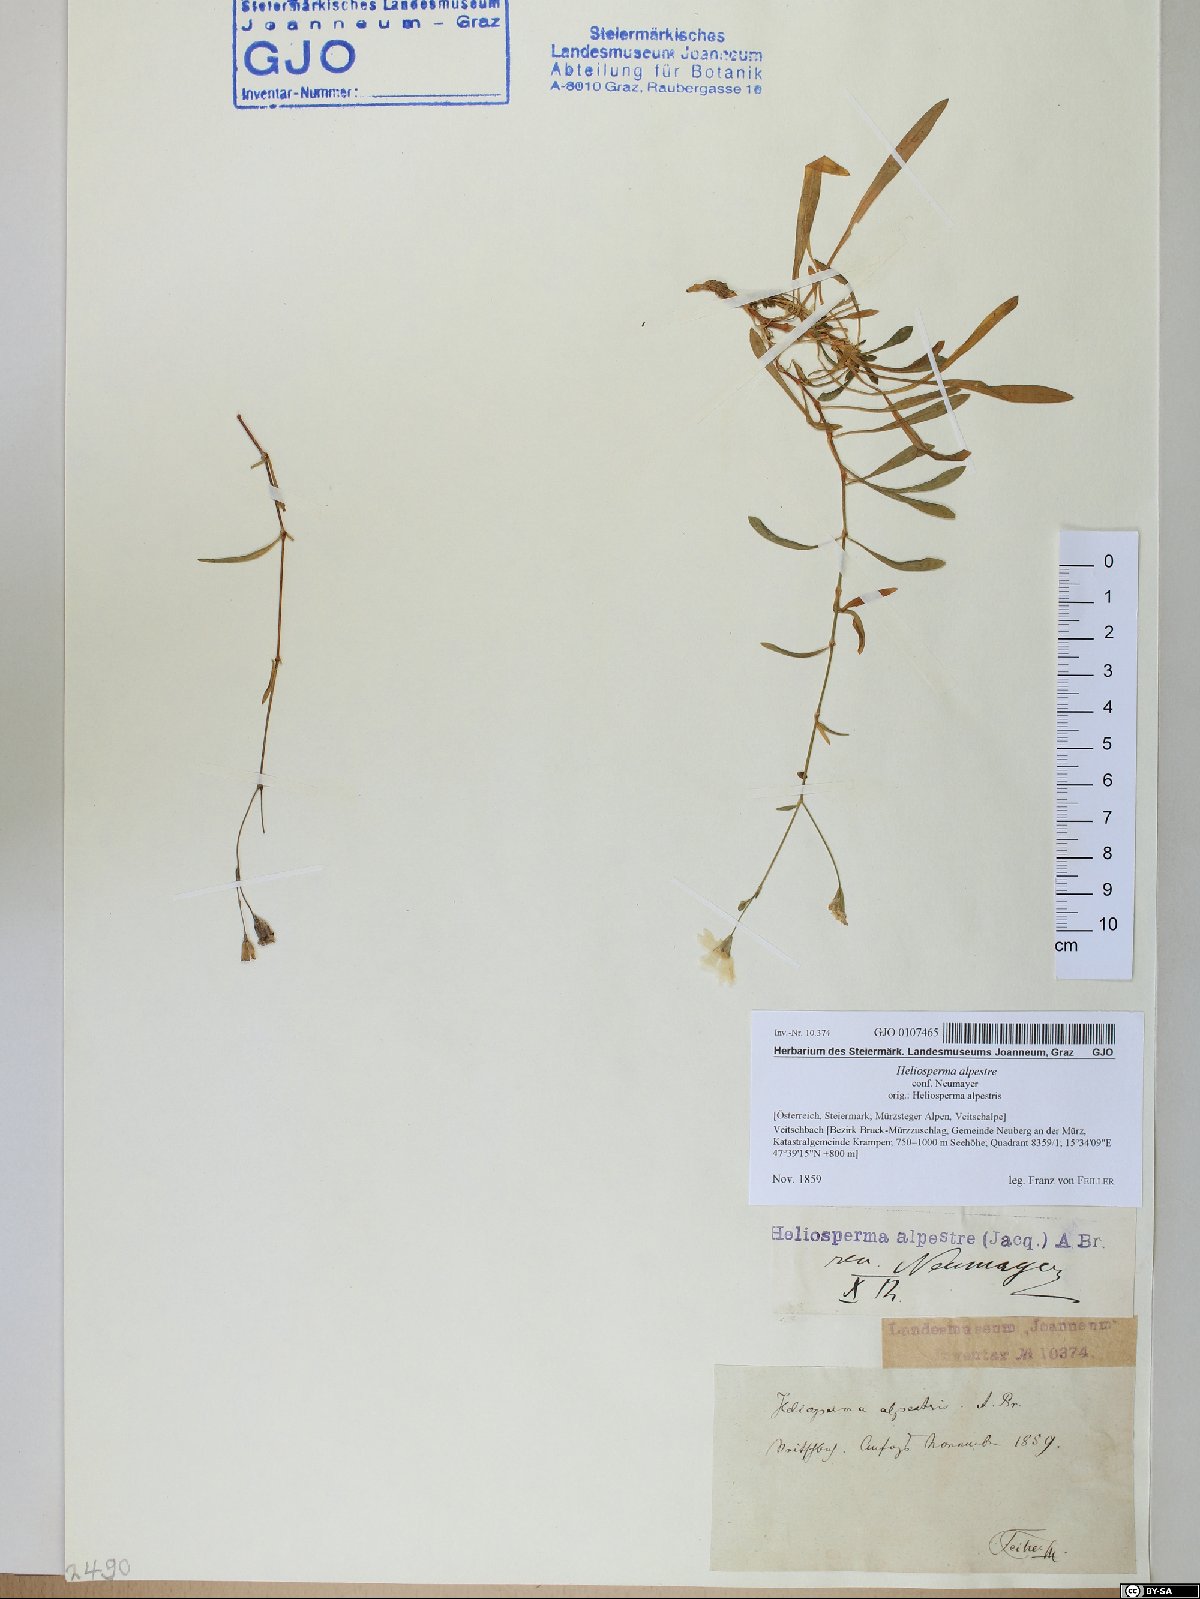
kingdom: Plantae
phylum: Tracheophyta
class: Magnoliopsida
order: Caryophyllales
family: Caryophyllaceae
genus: Heliosperma
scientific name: Heliosperma alpestre
